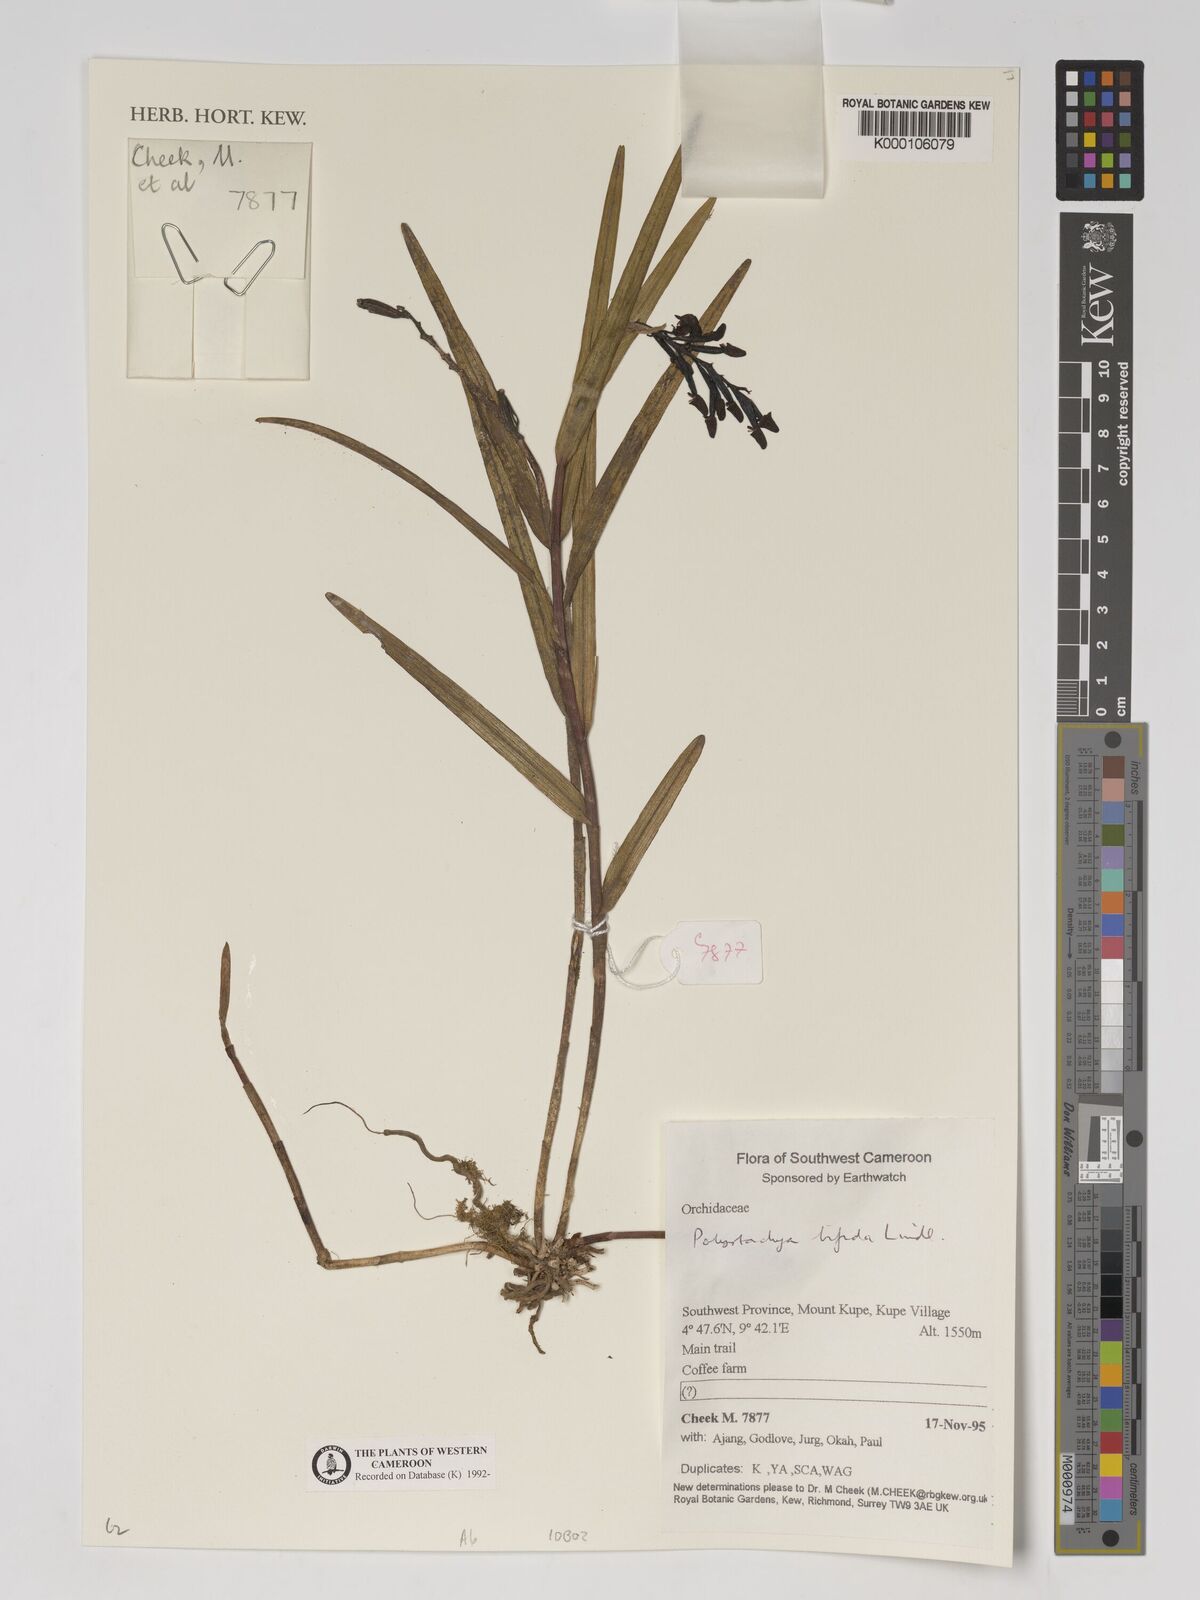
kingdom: Plantae
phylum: Tracheophyta
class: Liliopsida
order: Asparagales
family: Orchidaceae
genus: Polystachya
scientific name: Polystachya bifida
